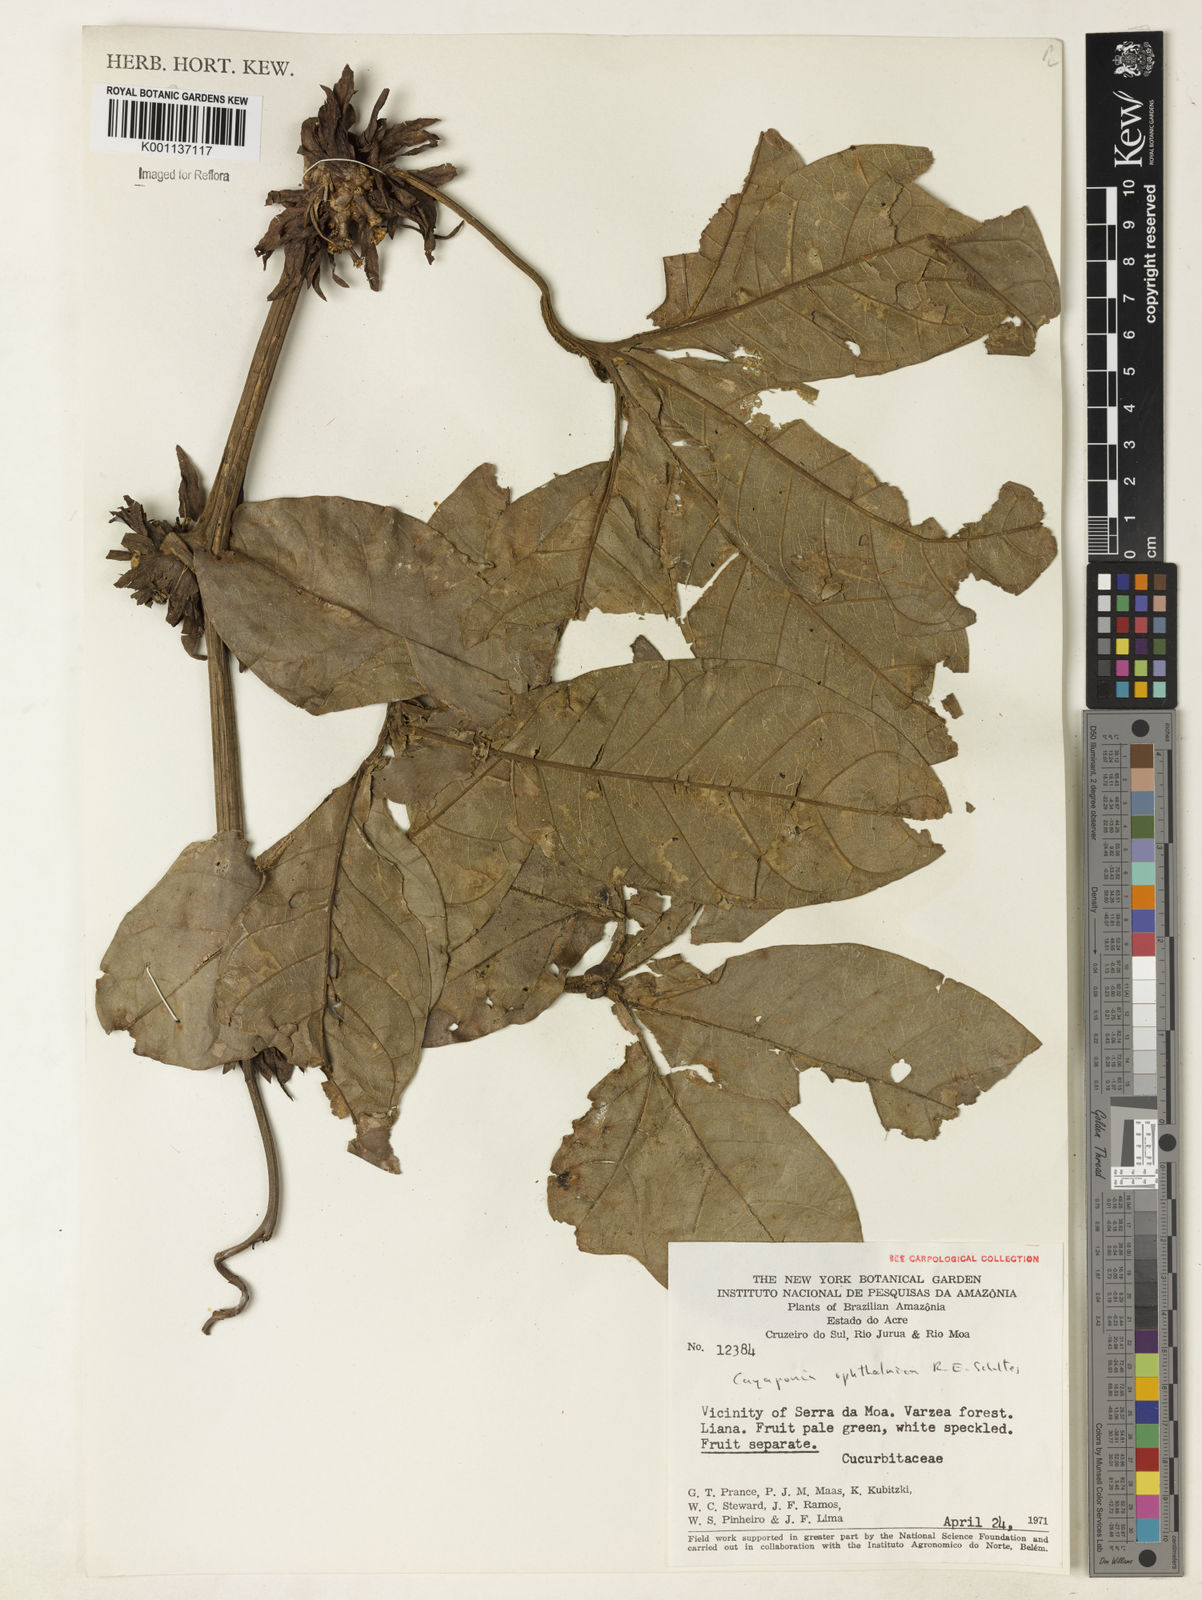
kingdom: Plantae
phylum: Tracheophyta
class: Magnoliopsida
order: Cucurbitales
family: Cucurbitaceae
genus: Cayaponia
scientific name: Cayaponia ophthalmica
